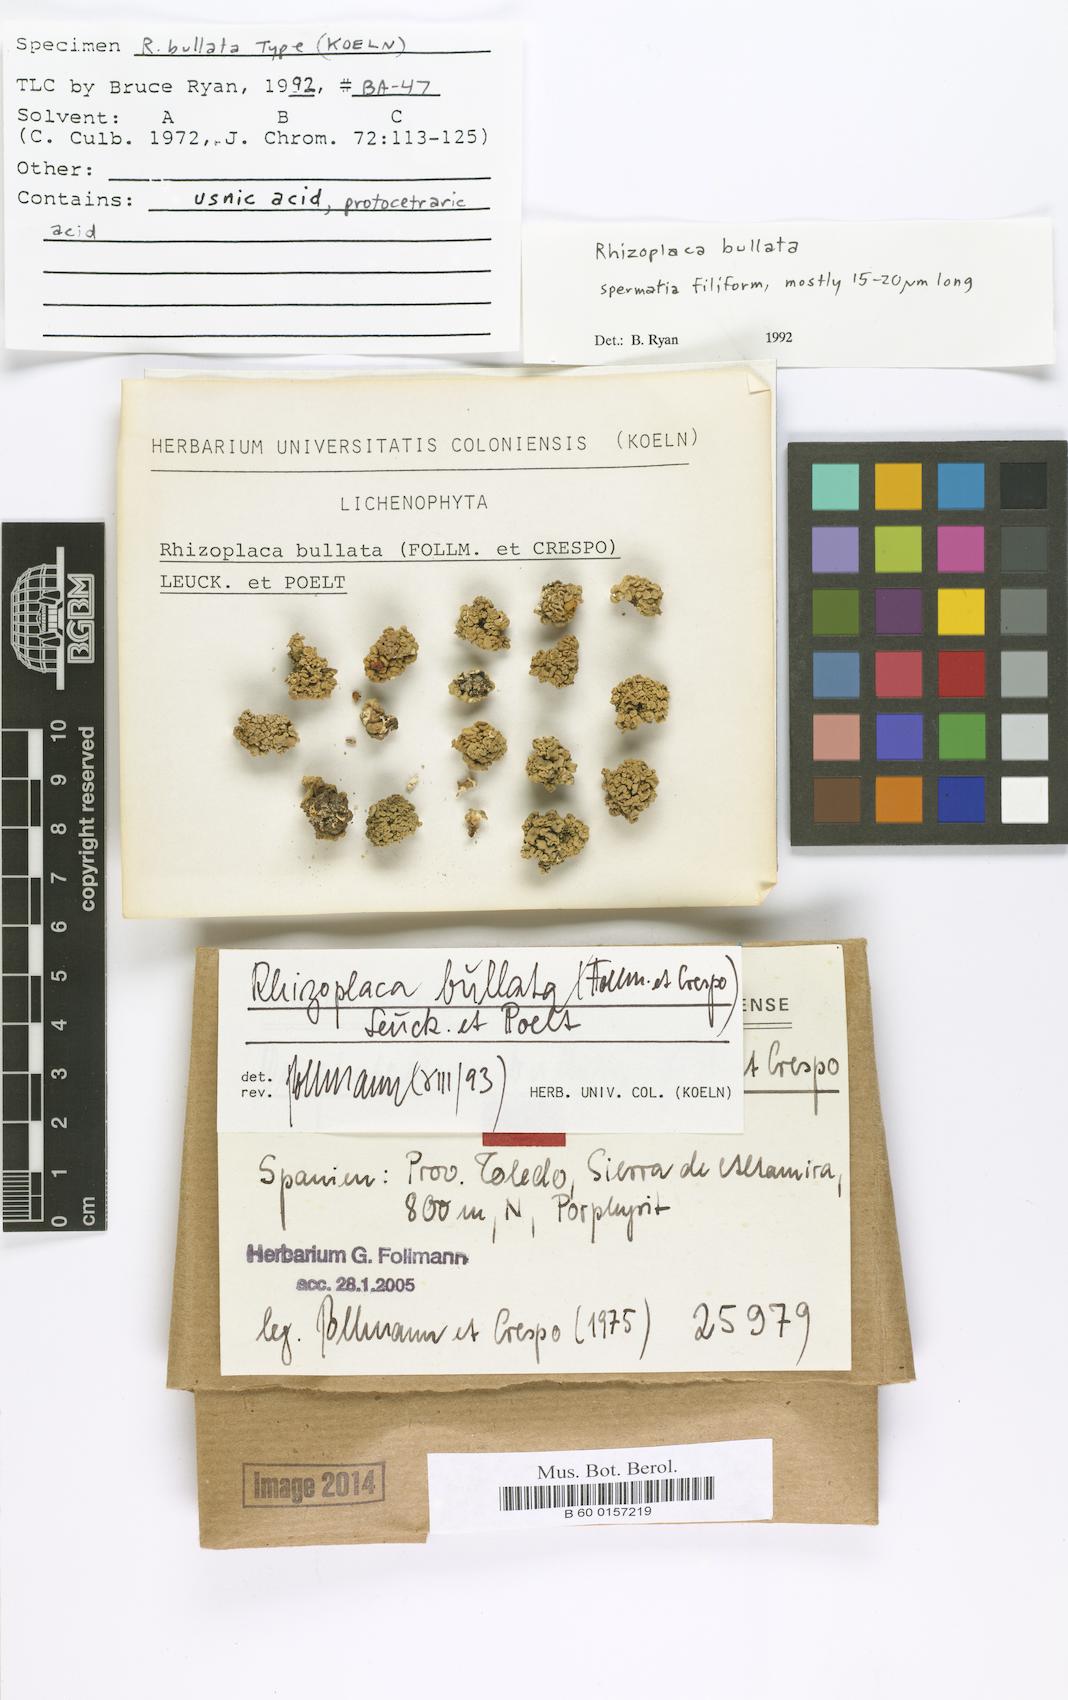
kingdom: Fungi
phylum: Ascomycota
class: Lecanoromycetes
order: Lecanorales
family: Lecanoraceae
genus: Straminella
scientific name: Straminella bullata
